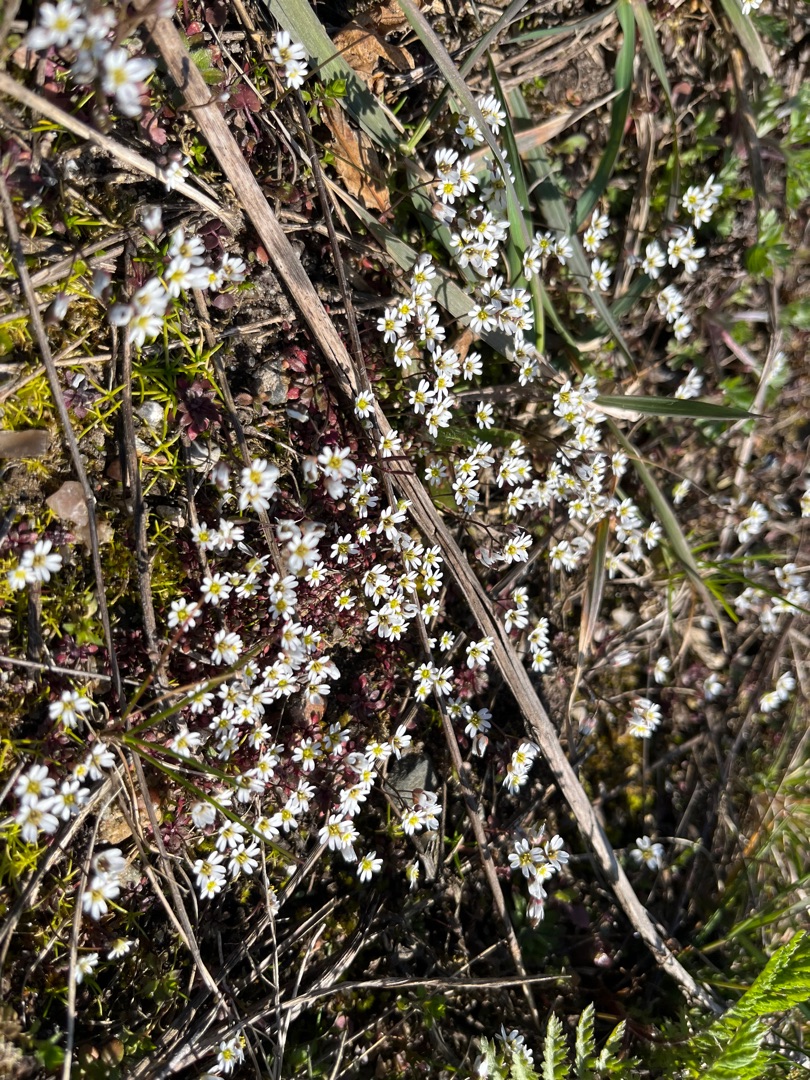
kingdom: Plantae
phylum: Tracheophyta
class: Magnoliopsida
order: Brassicales
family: Brassicaceae
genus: Draba
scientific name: Draba verna
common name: Vår-gæslingeblomst
